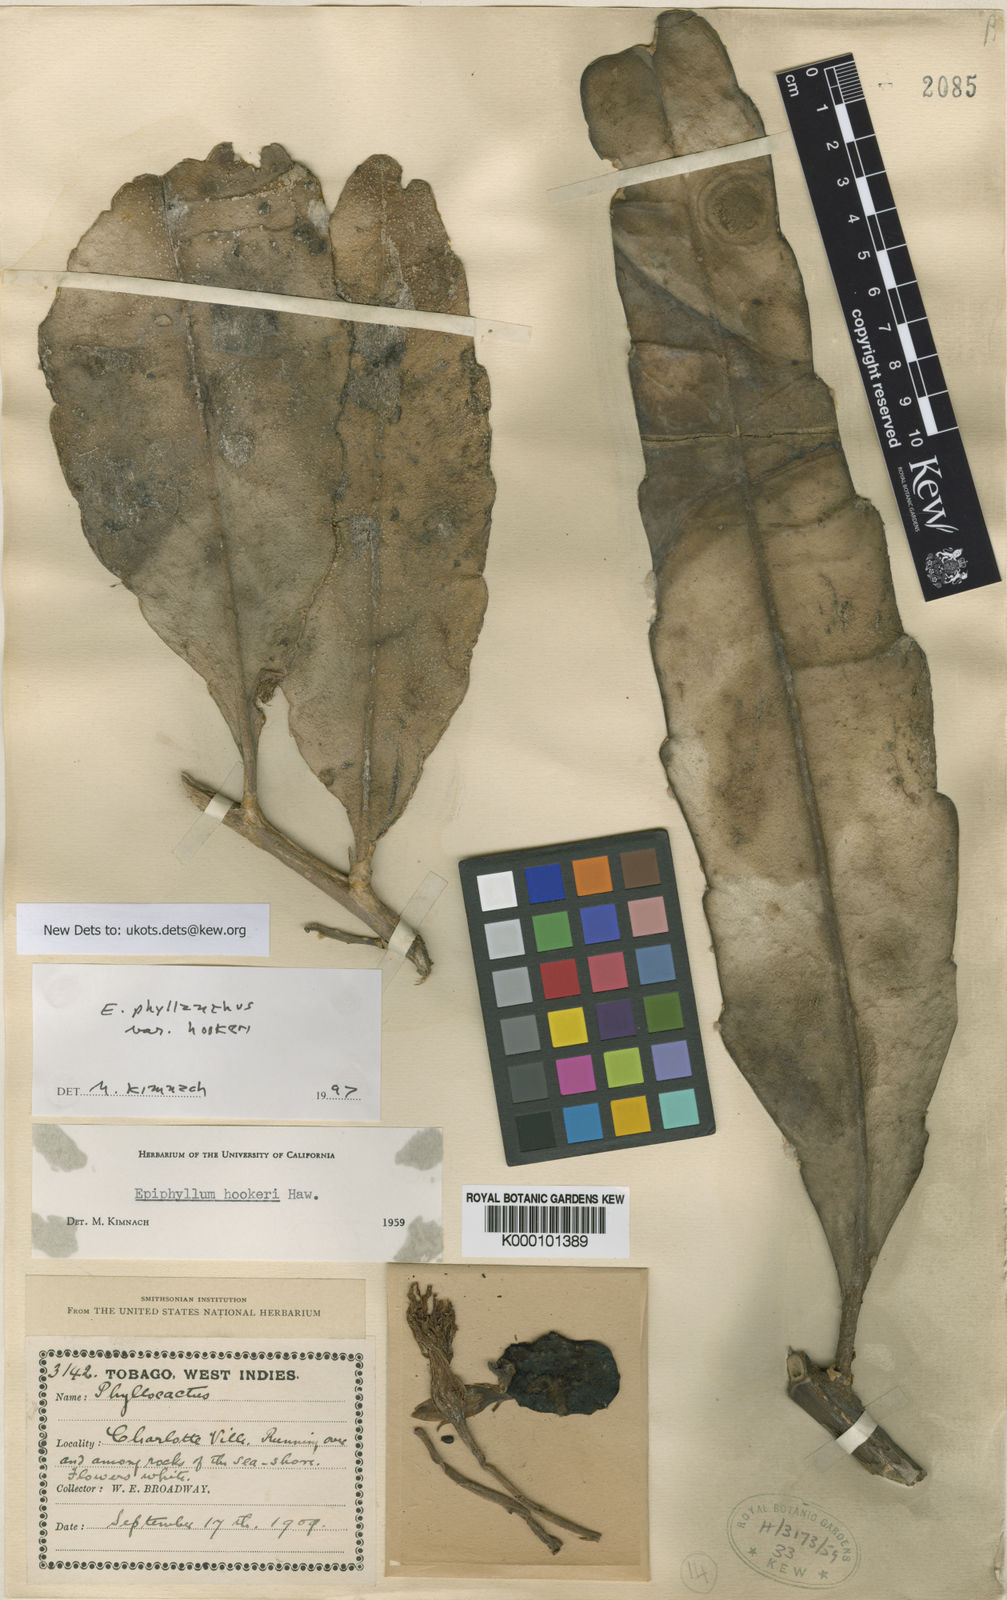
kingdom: Plantae
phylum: Tracheophyta
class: Magnoliopsida
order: Caryophyllales
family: Cactaceae
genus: Epiphyllum
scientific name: Epiphyllum phyllanthus
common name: Climbing cactus
